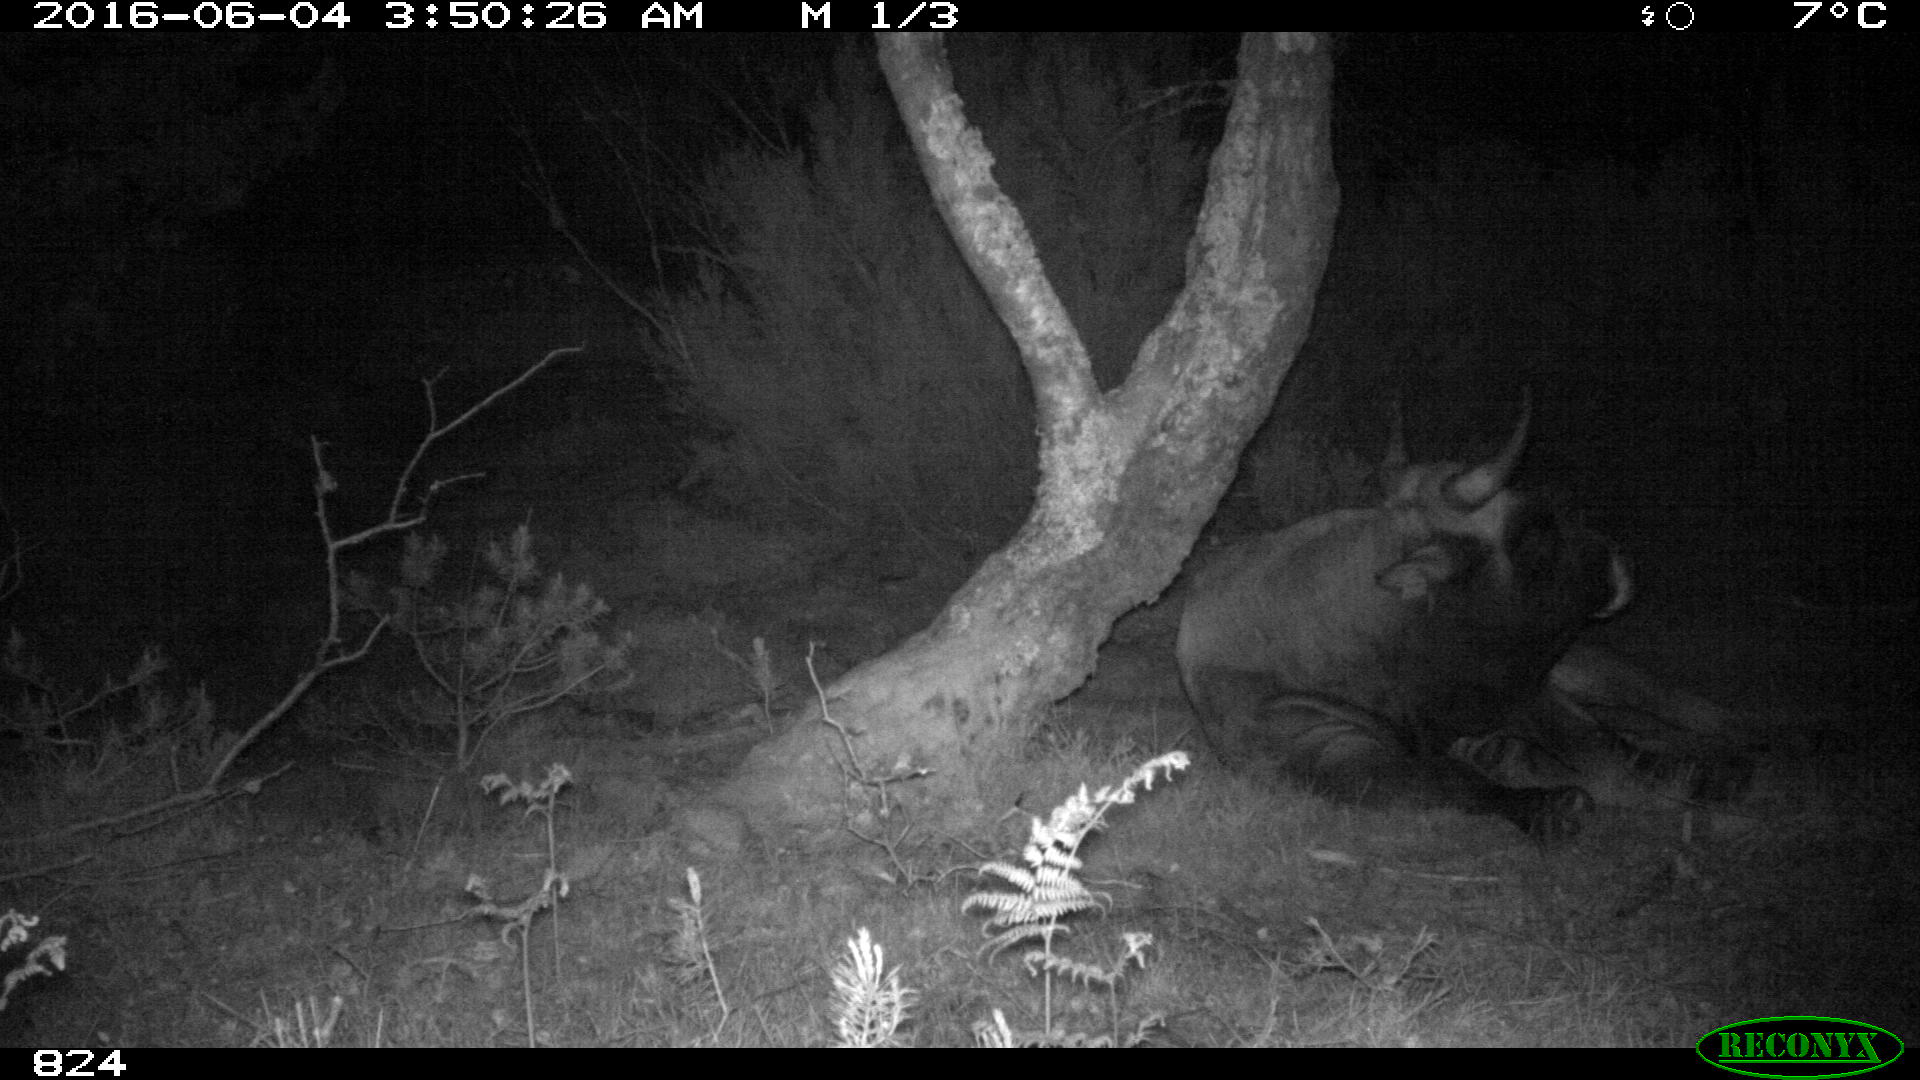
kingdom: Animalia
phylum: Chordata
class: Mammalia
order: Artiodactyla
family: Bovidae
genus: Bos
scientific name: Bos taurus
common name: Domesticated cattle
